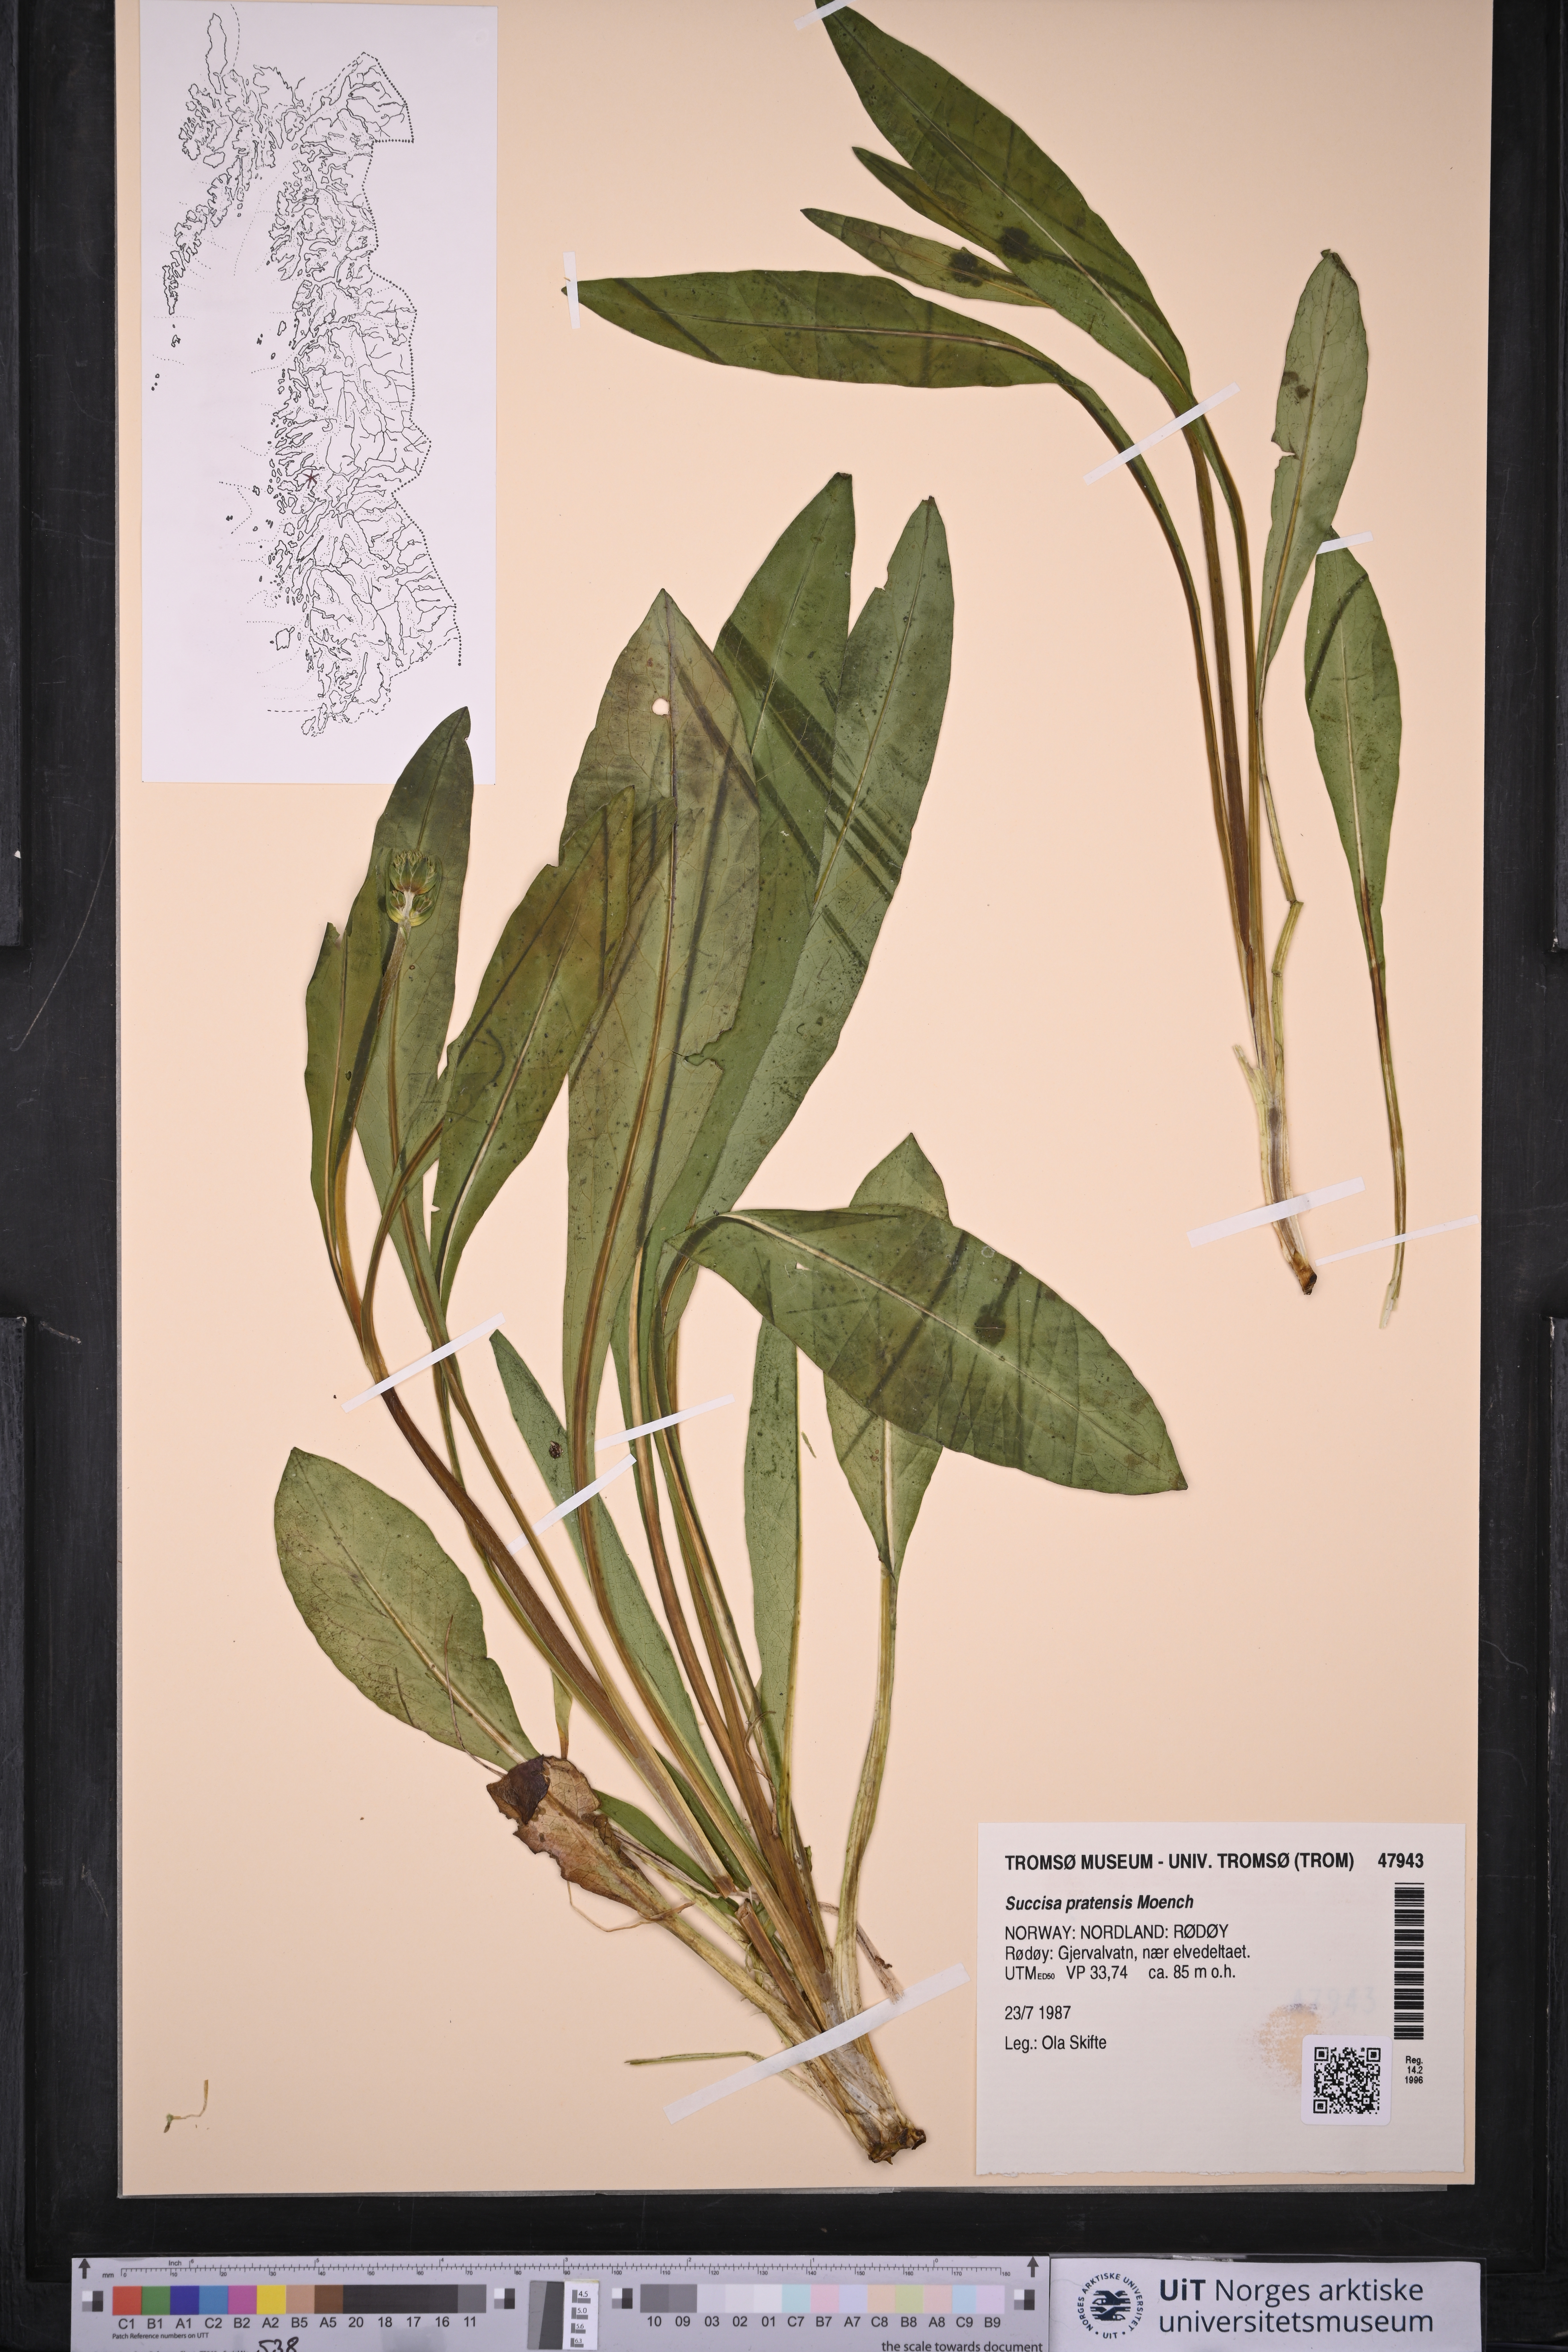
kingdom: Plantae
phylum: Tracheophyta
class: Magnoliopsida
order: Dipsacales
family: Caprifoliaceae
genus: Succisa
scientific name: Succisa pratensis
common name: Devil's-bit
